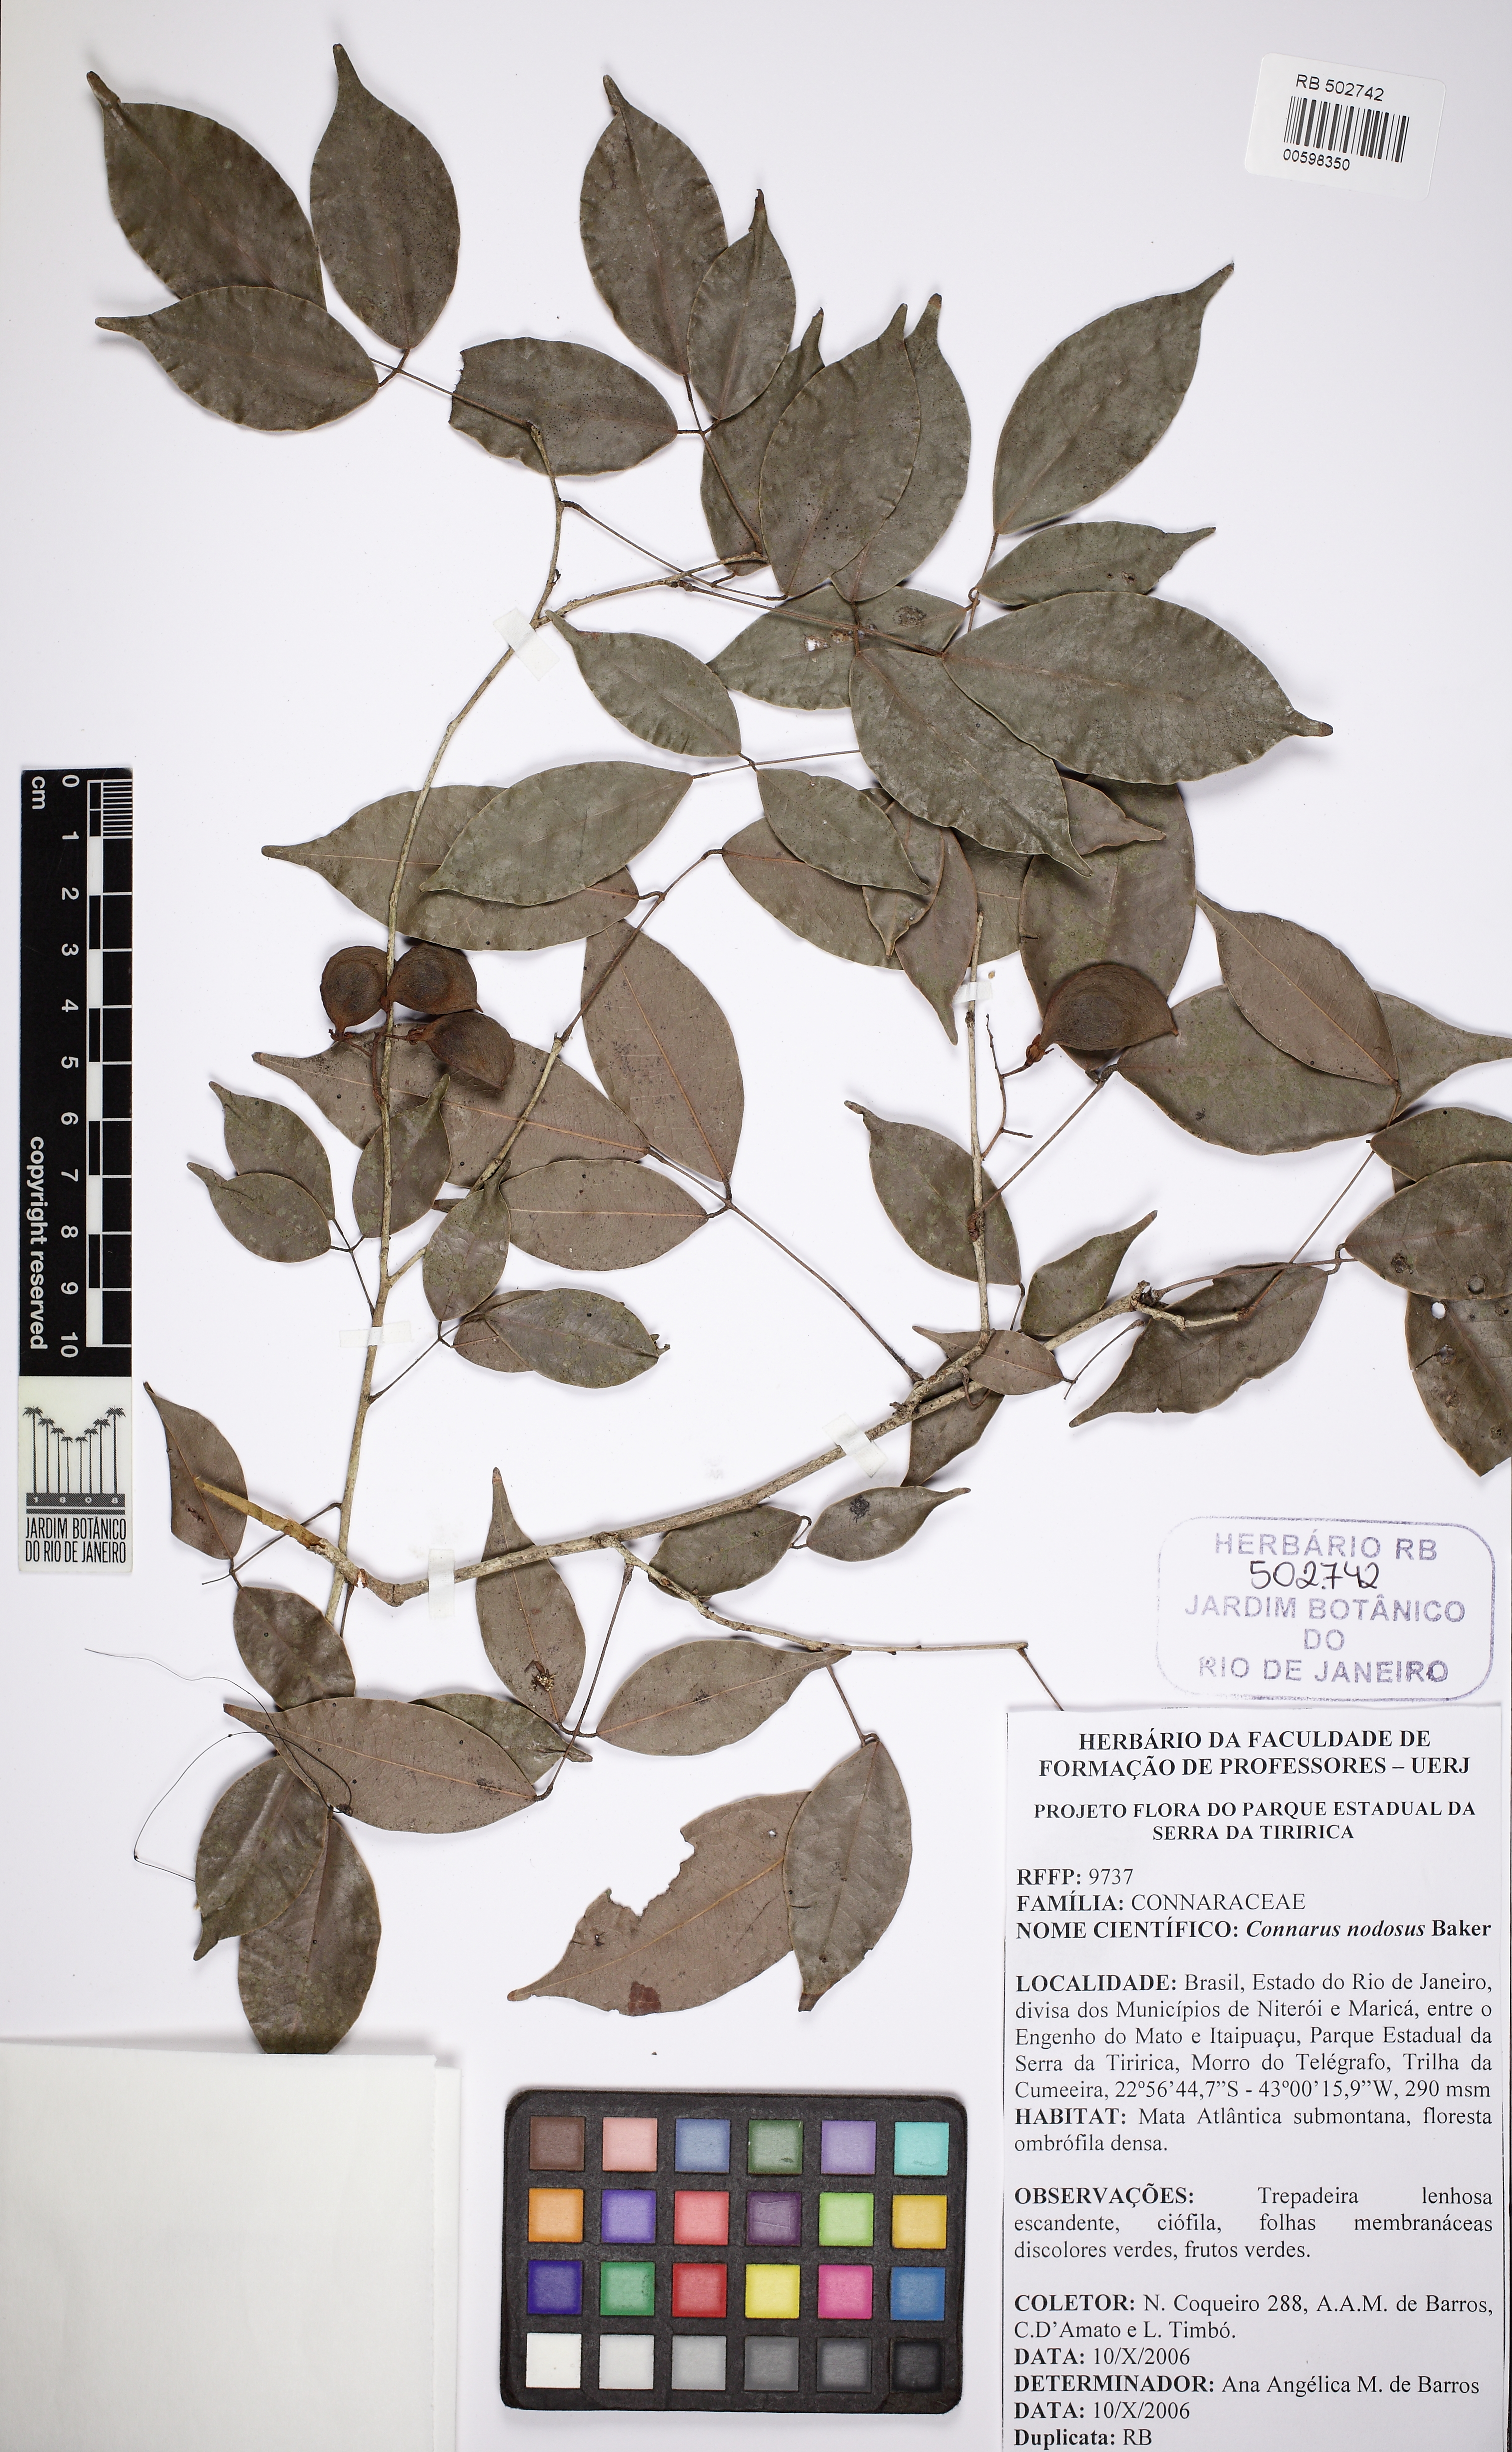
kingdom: Plantae
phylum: Tracheophyta
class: Magnoliopsida
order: Oxalidales
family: Connaraceae
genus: Connarus
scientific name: Connarus nodosus
